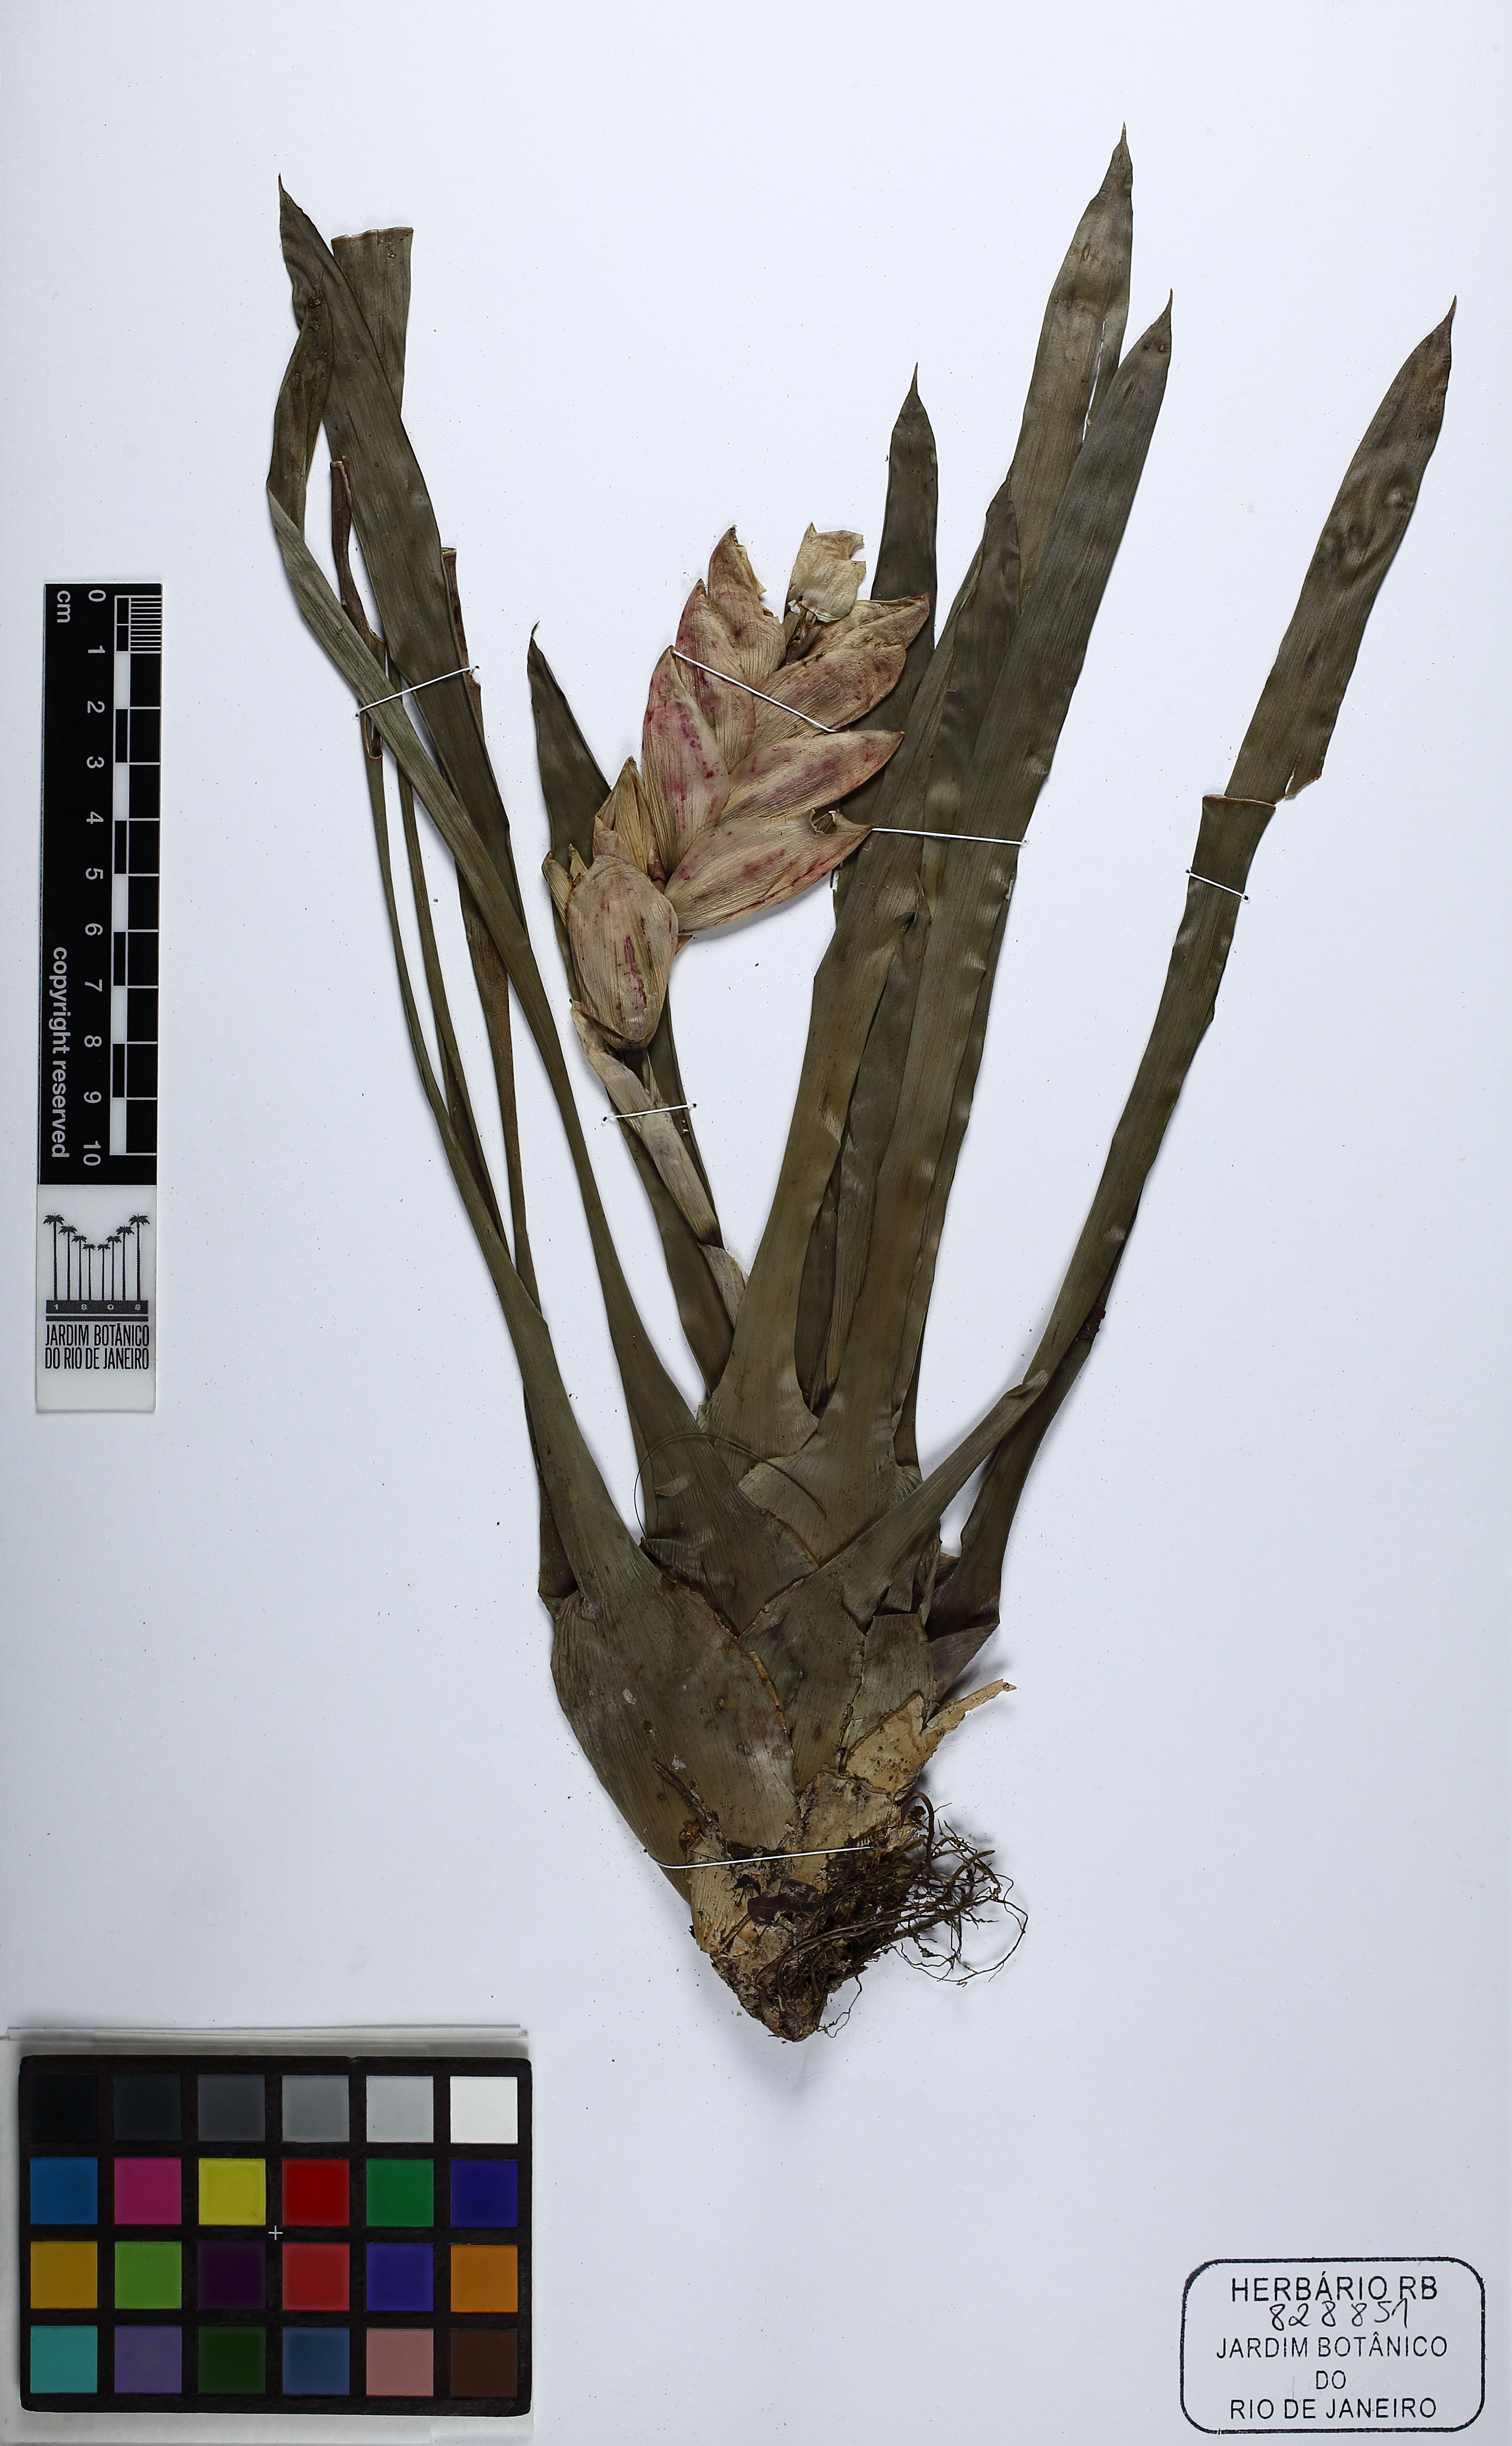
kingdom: Plantae
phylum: Tracheophyta
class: Liliopsida
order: Poales
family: Bromeliaceae
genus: Vriesea
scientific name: Vriesea heterostachys
